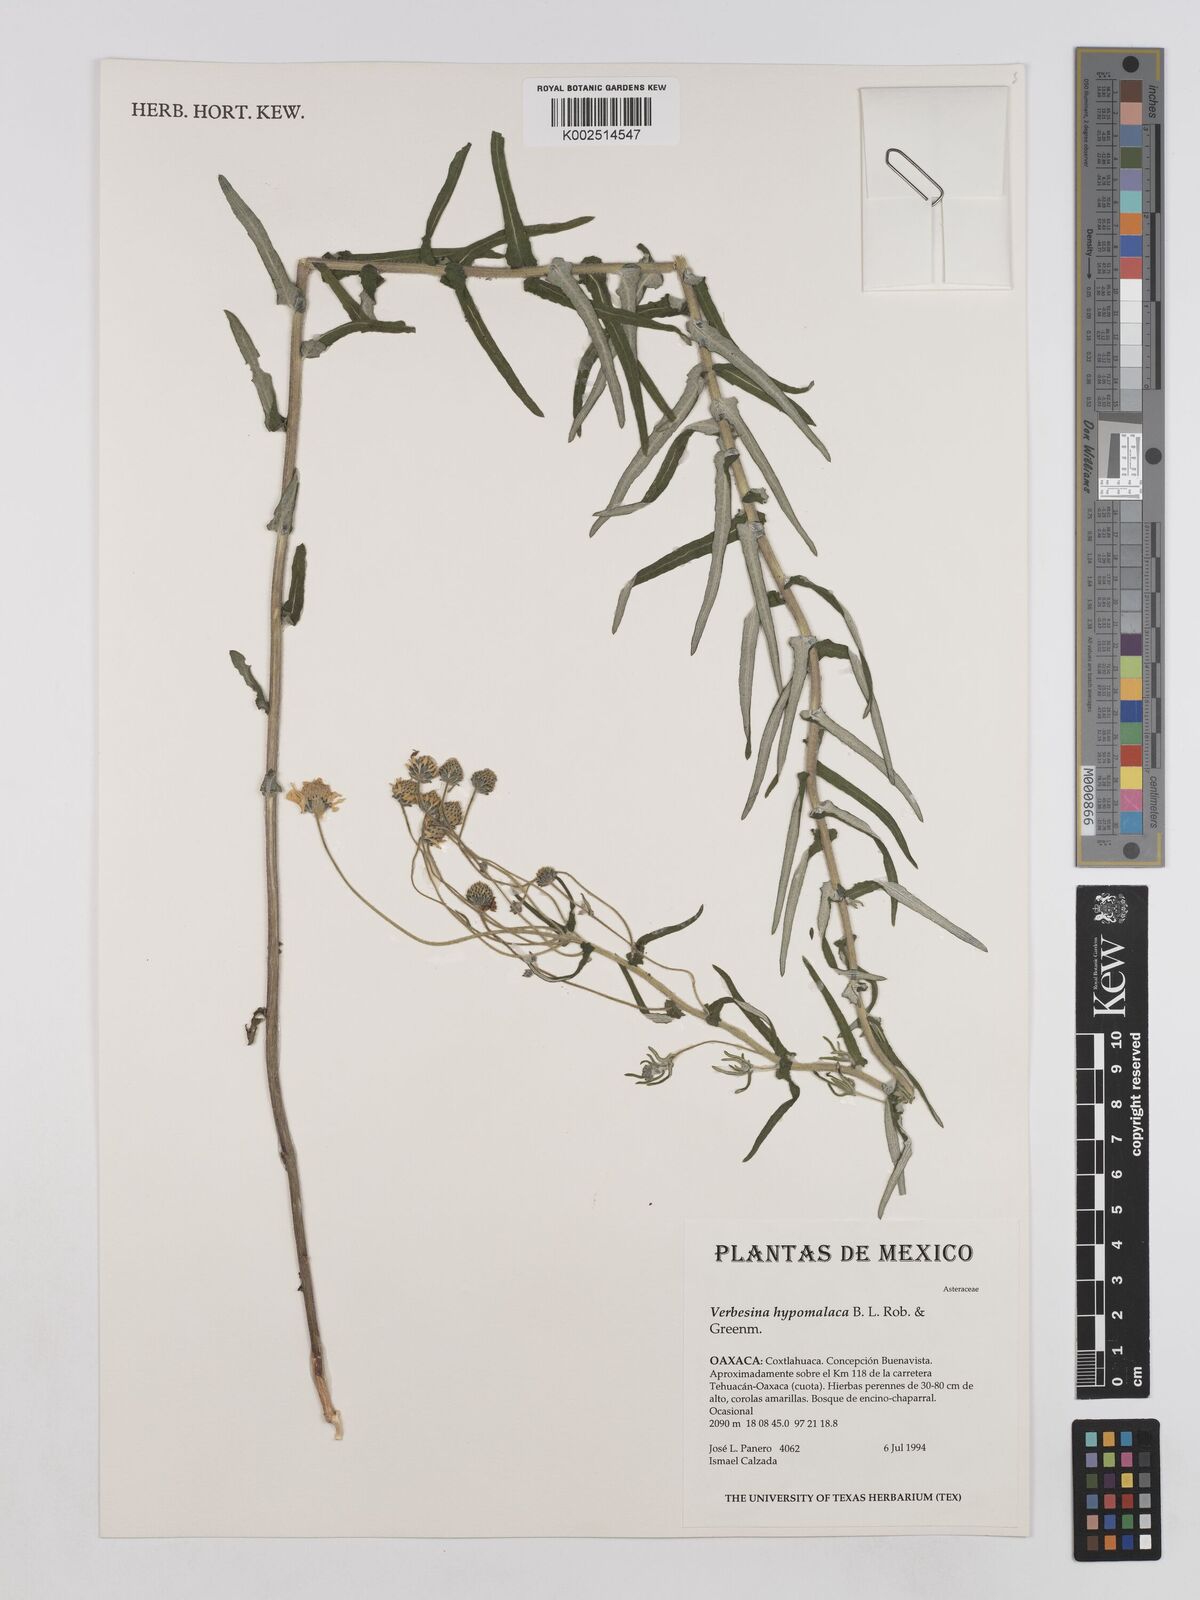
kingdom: Plantae
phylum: Tracheophyta
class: Magnoliopsida
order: Asterales
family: Asteraceae
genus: Verbesina
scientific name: Verbesina hypomalaca
